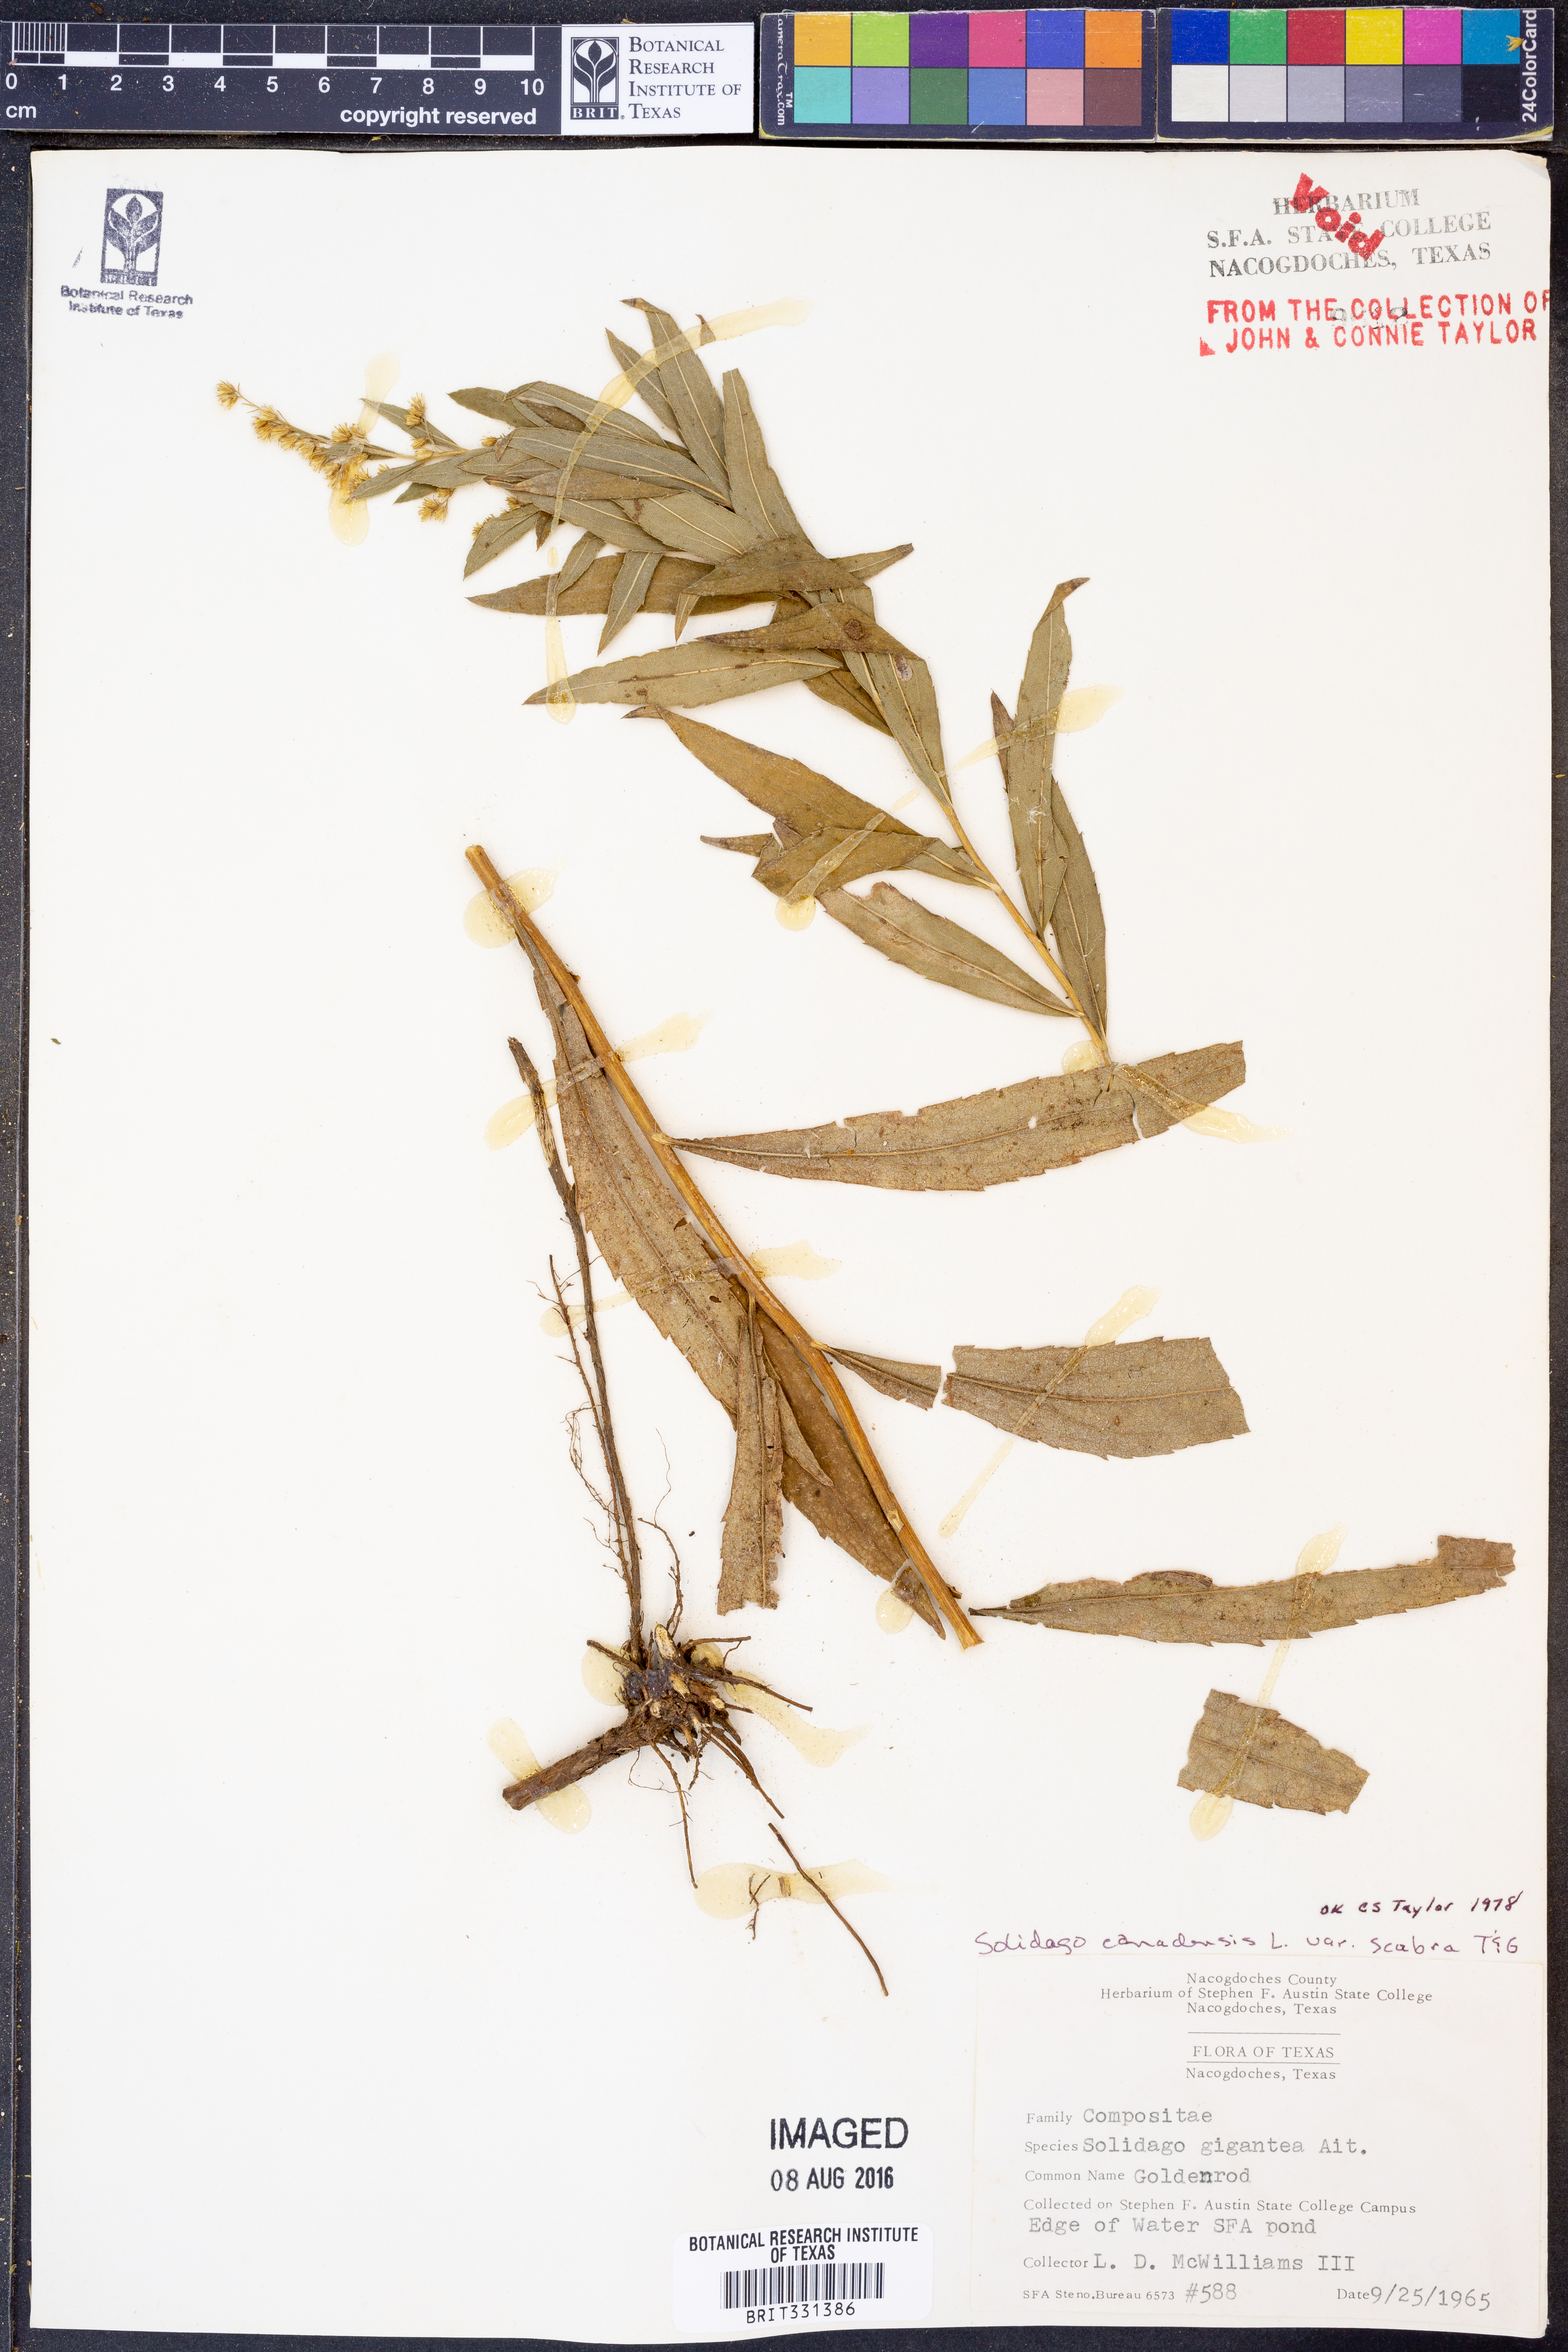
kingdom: Plantae
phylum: Tracheophyta
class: Magnoliopsida
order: Asterales
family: Asteraceae
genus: Solidago
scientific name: Solidago altissima
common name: Late goldenrod
